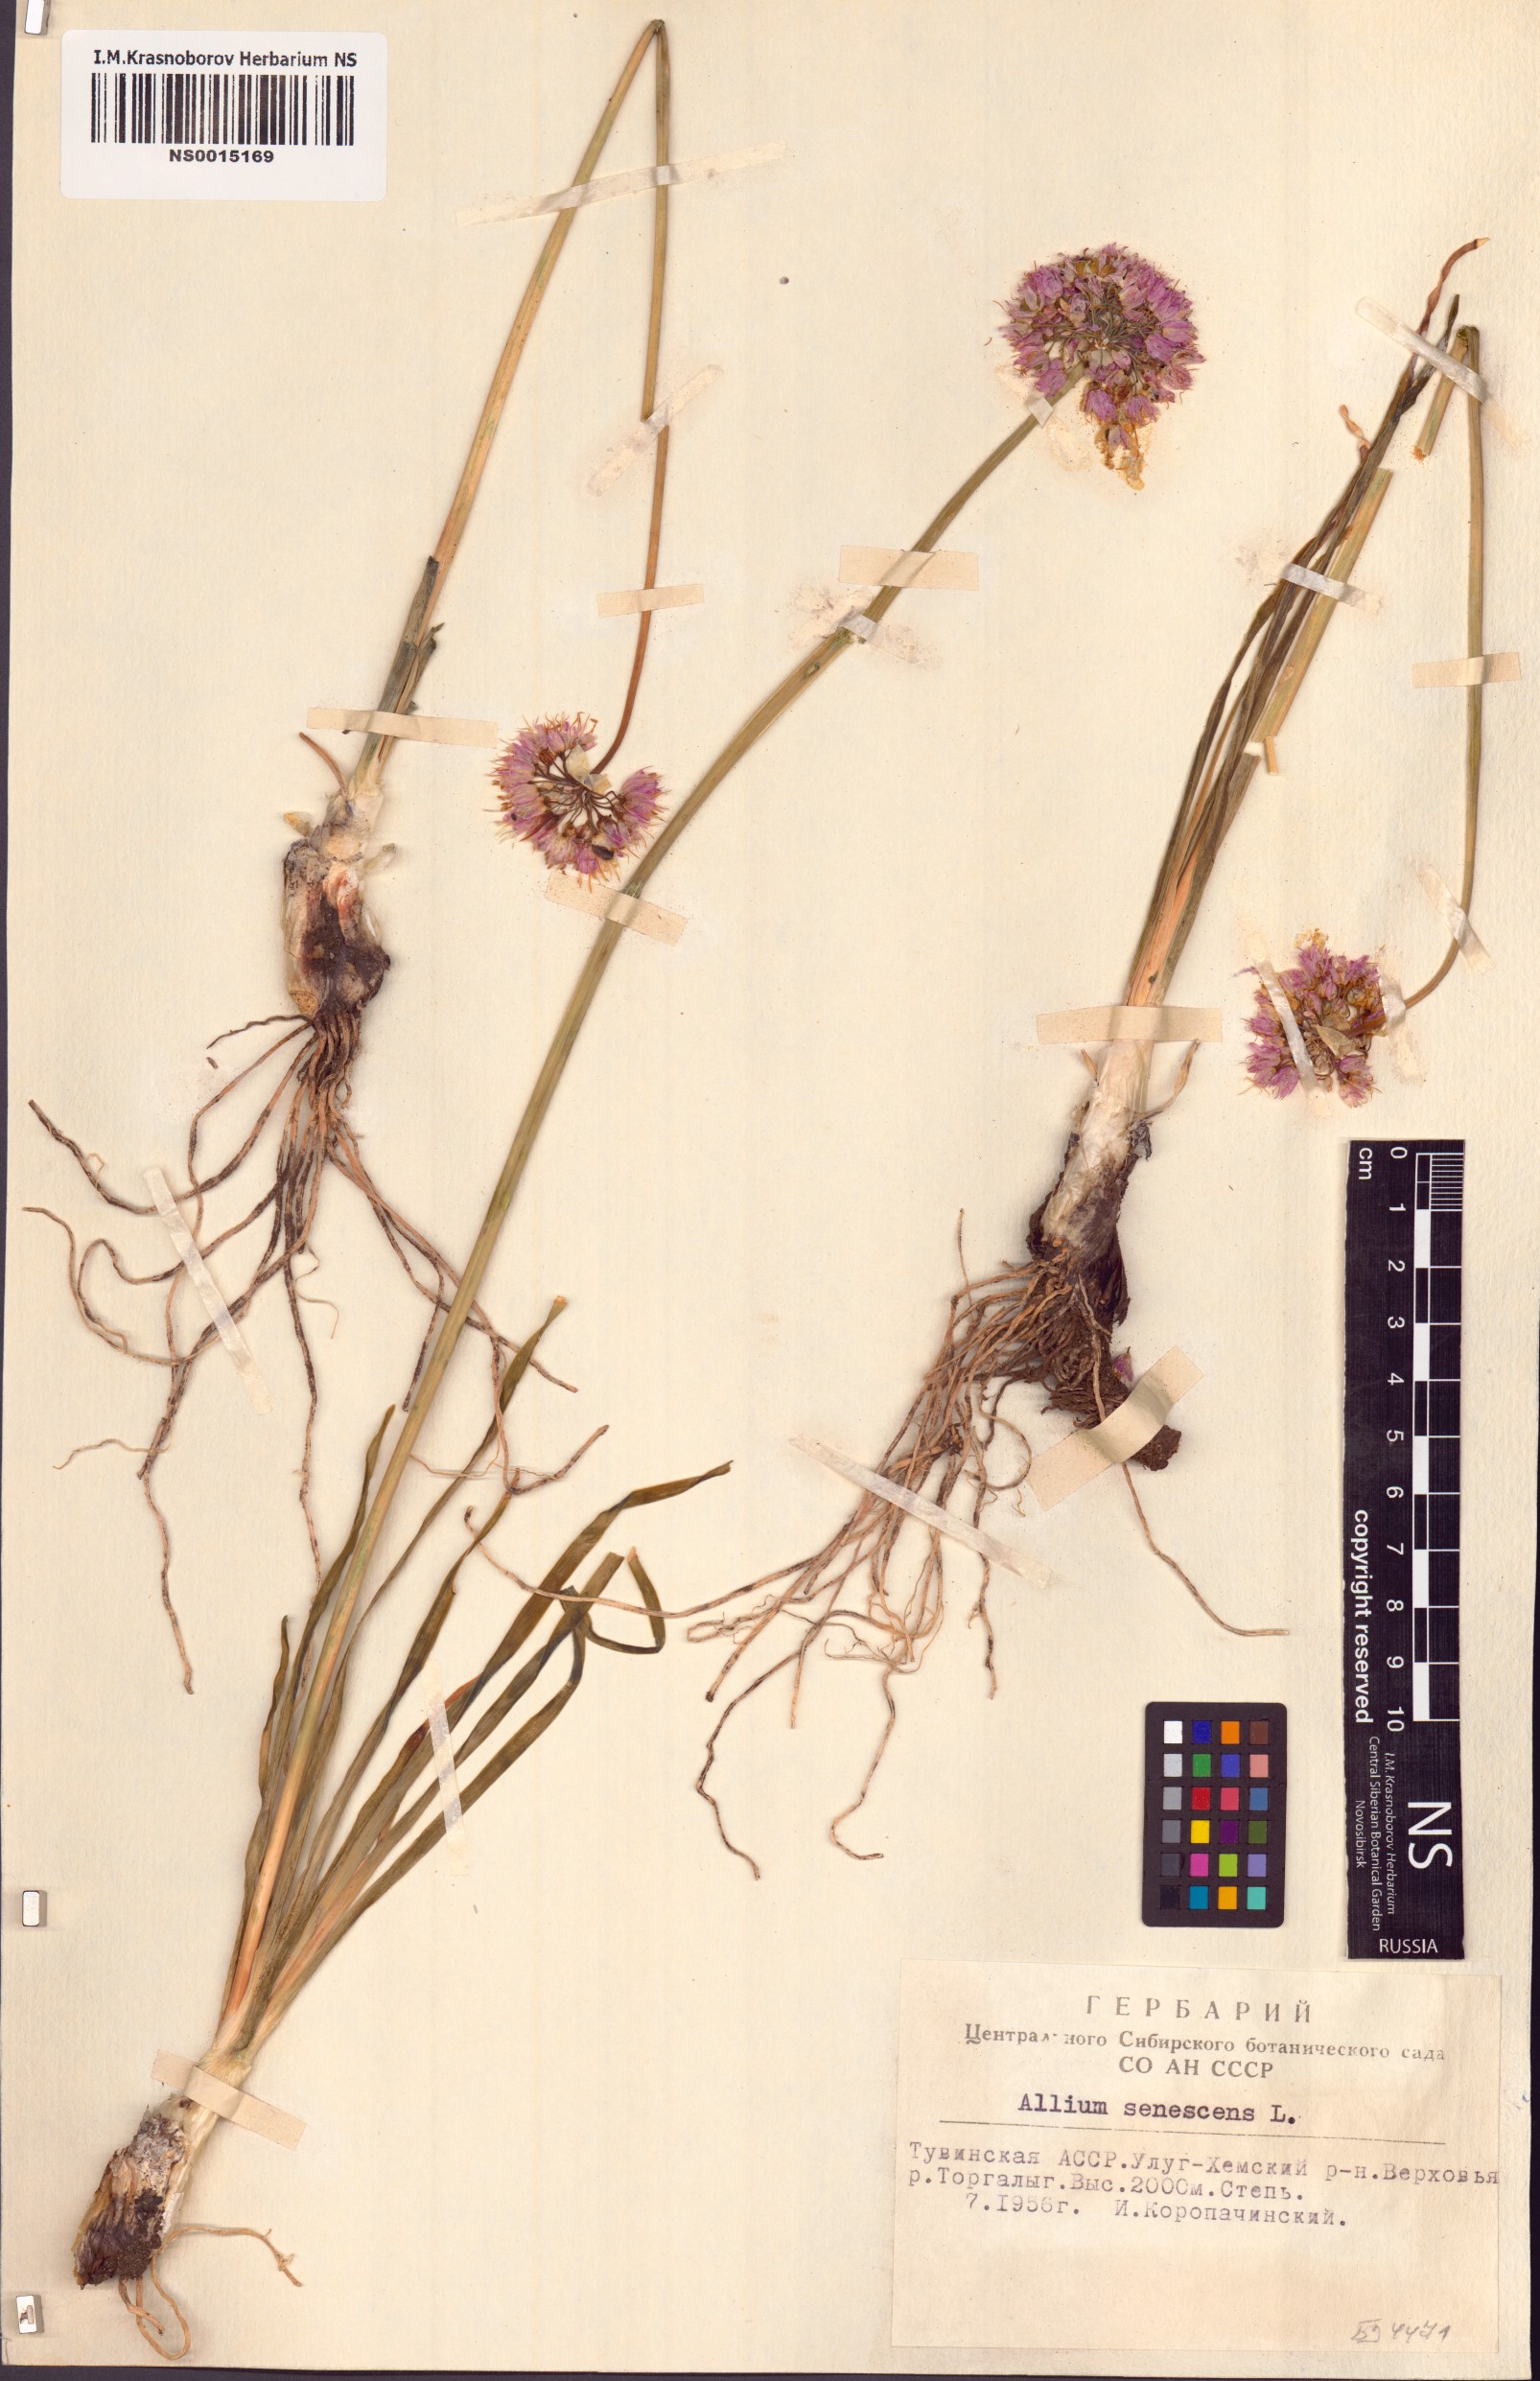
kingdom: Plantae
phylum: Tracheophyta
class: Liliopsida
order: Asparagales
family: Amaryllidaceae
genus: Allium
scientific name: Allium senescens
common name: German garlic
